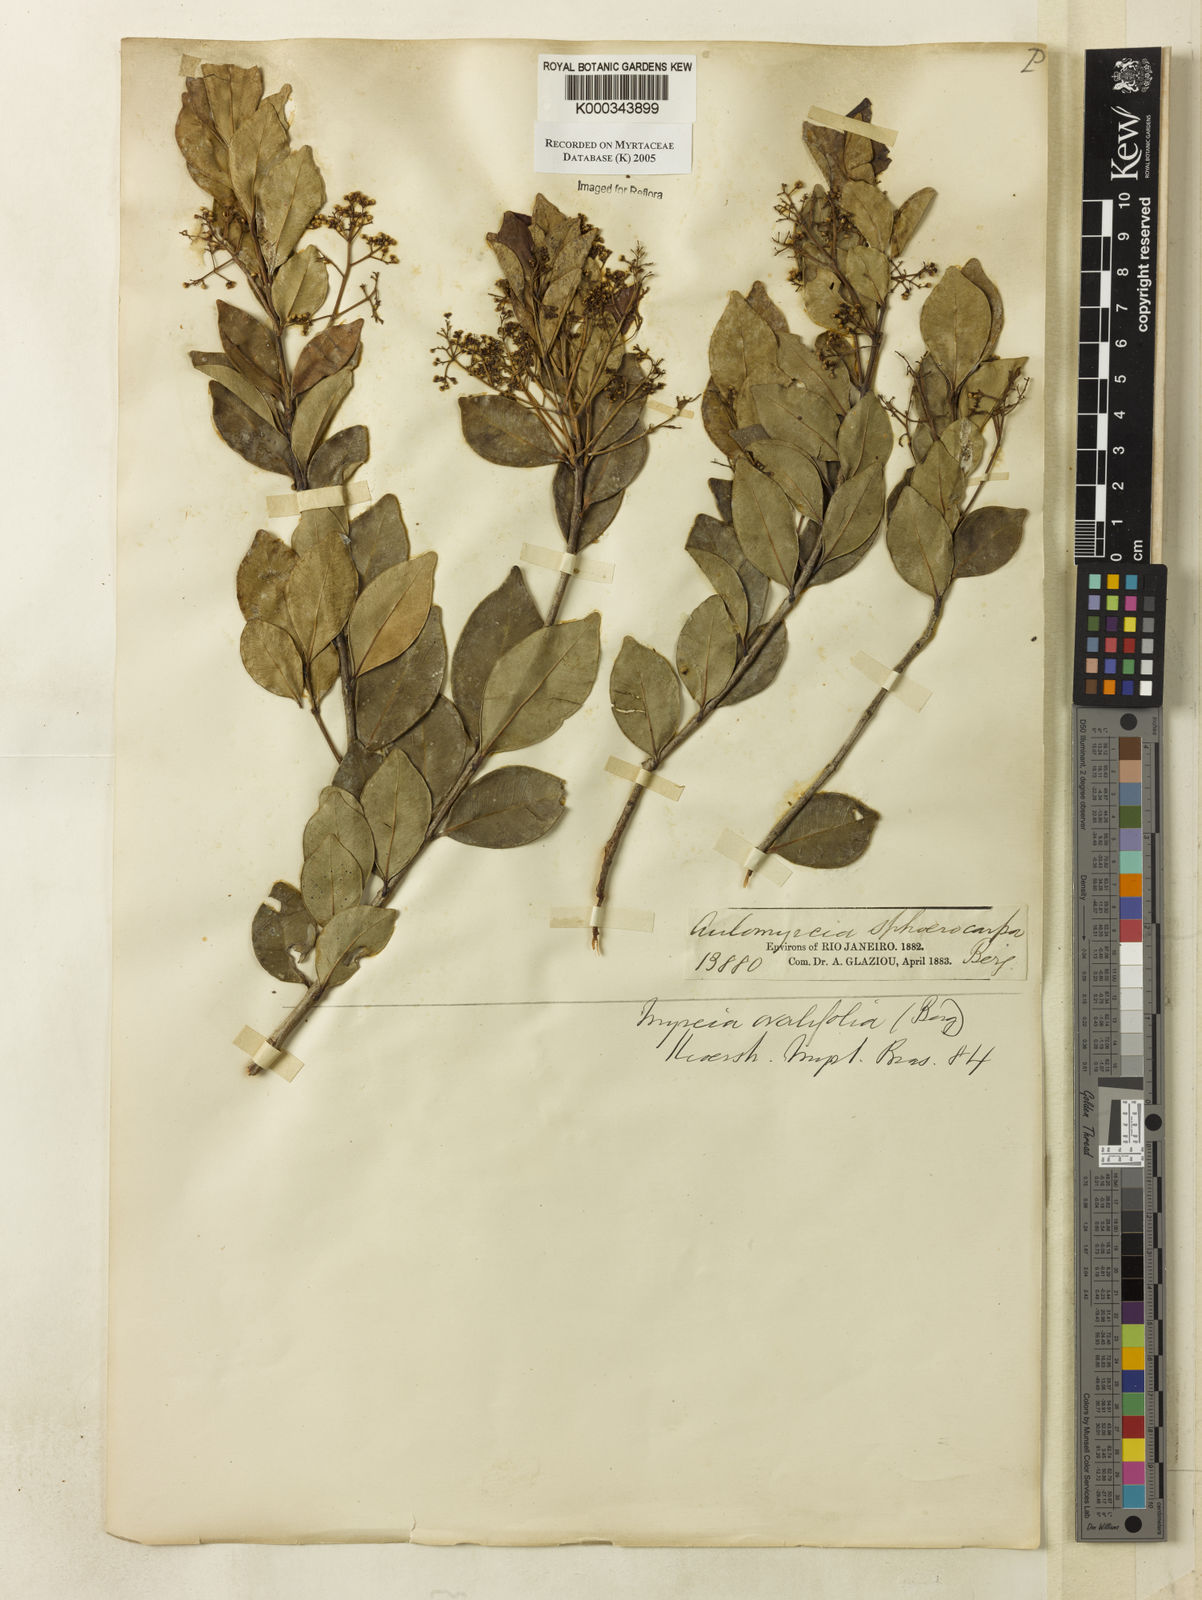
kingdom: Plantae
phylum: Tracheophyta
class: Magnoliopsida
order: Myrtales
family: Myrtaceae
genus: Myrcia
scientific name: Myrcia multiflora
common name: Pedra hume
